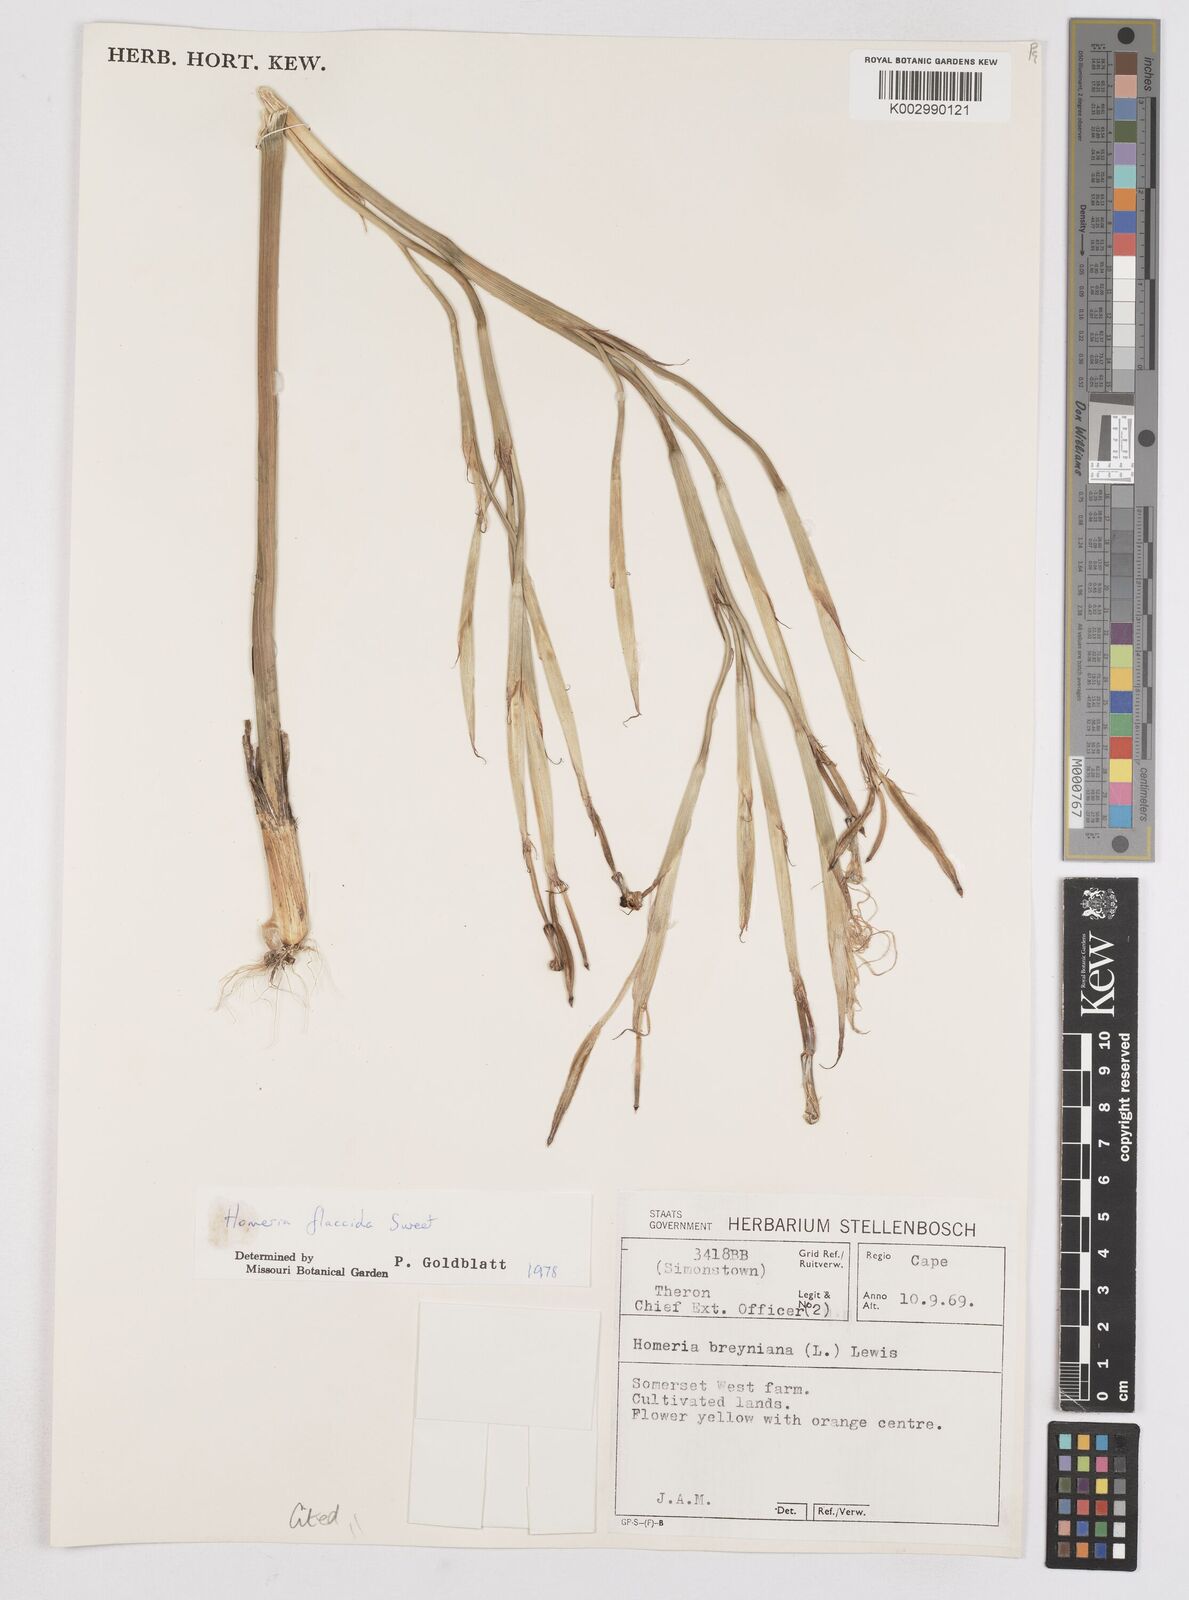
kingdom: Plantae
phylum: Tracheophyta
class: Liliopsida
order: Asparagales
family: Iridaceae
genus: Moraea
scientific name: Moraea flaccida
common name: One-leaf cape-tulip
